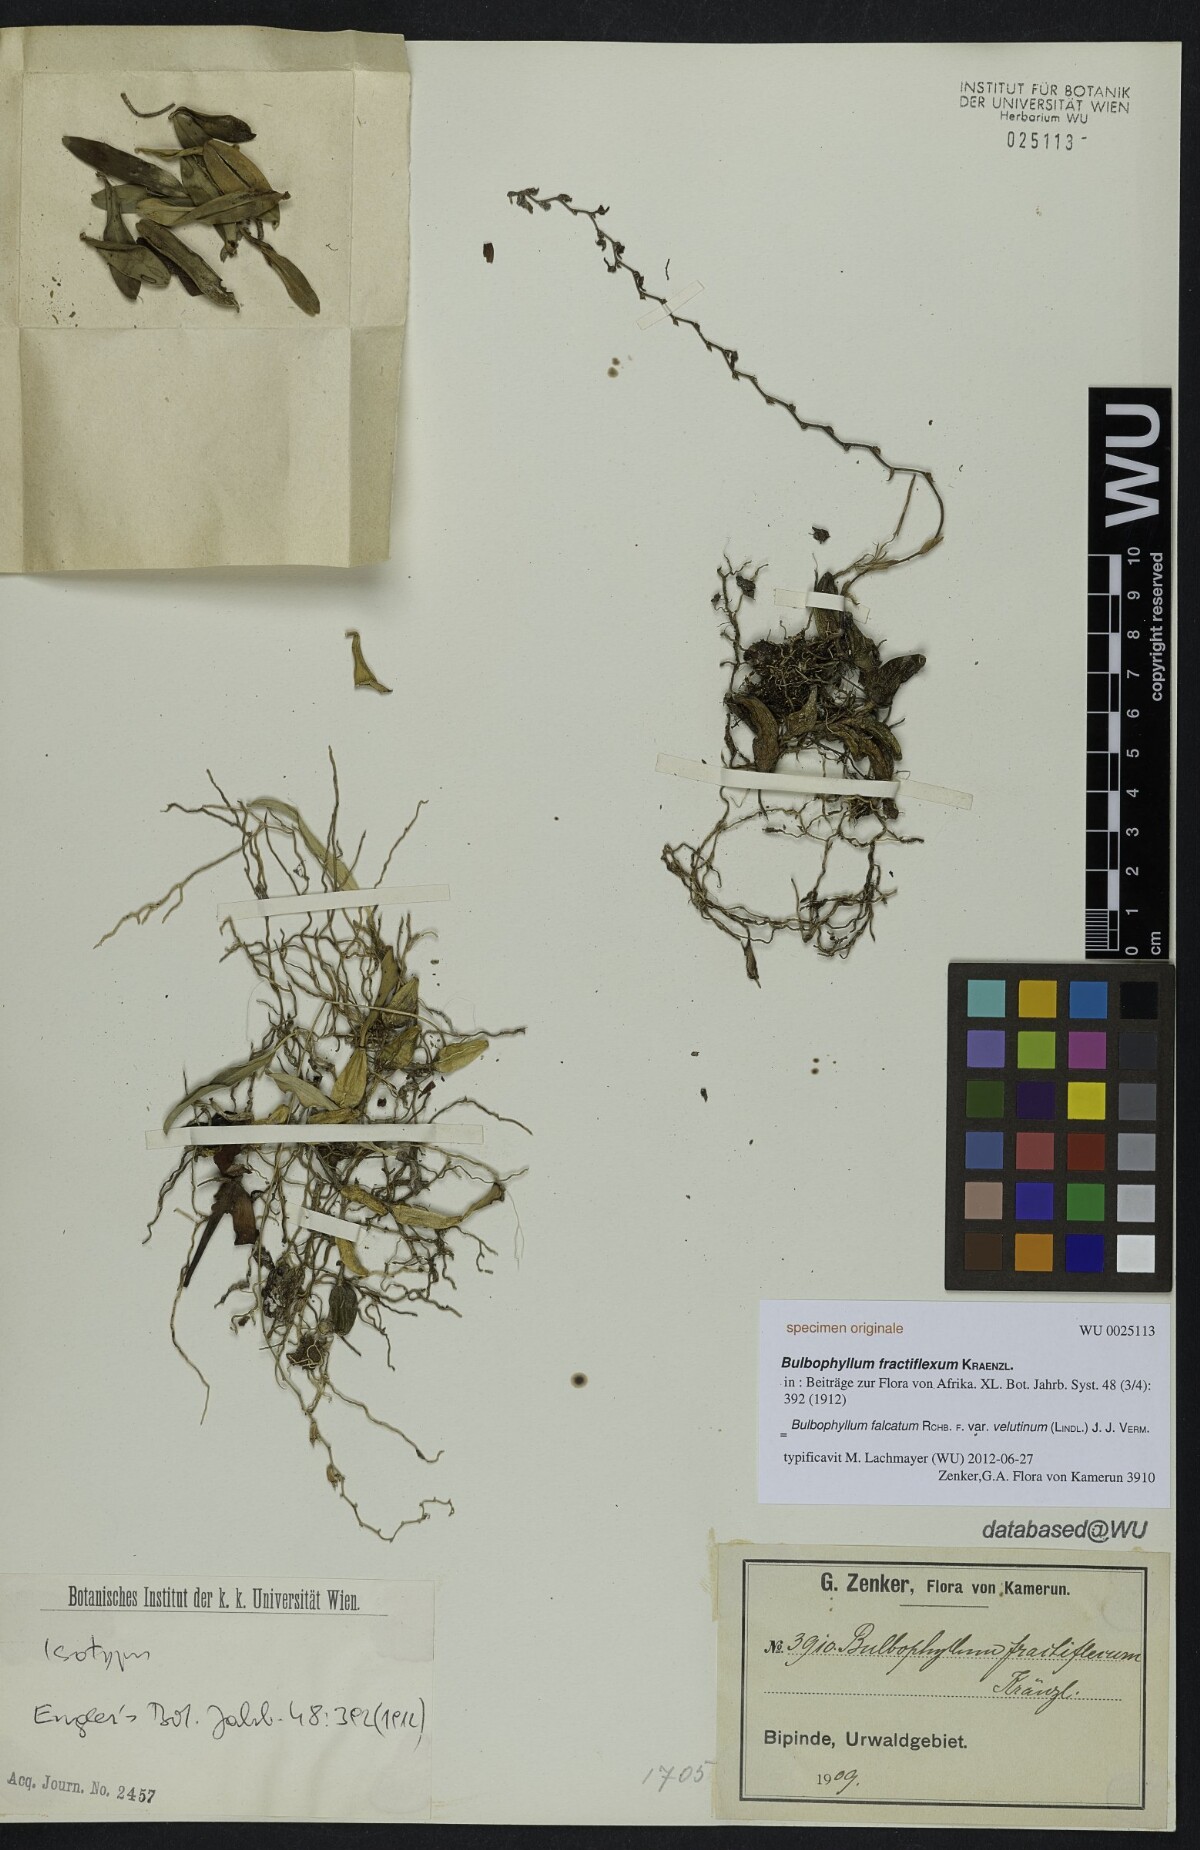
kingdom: Plantae
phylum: Tracheophyta
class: Liliopsida
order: Asparagales
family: Orchidaceae
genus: Bulbophyllum
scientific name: Bulbophyllum falcatum
